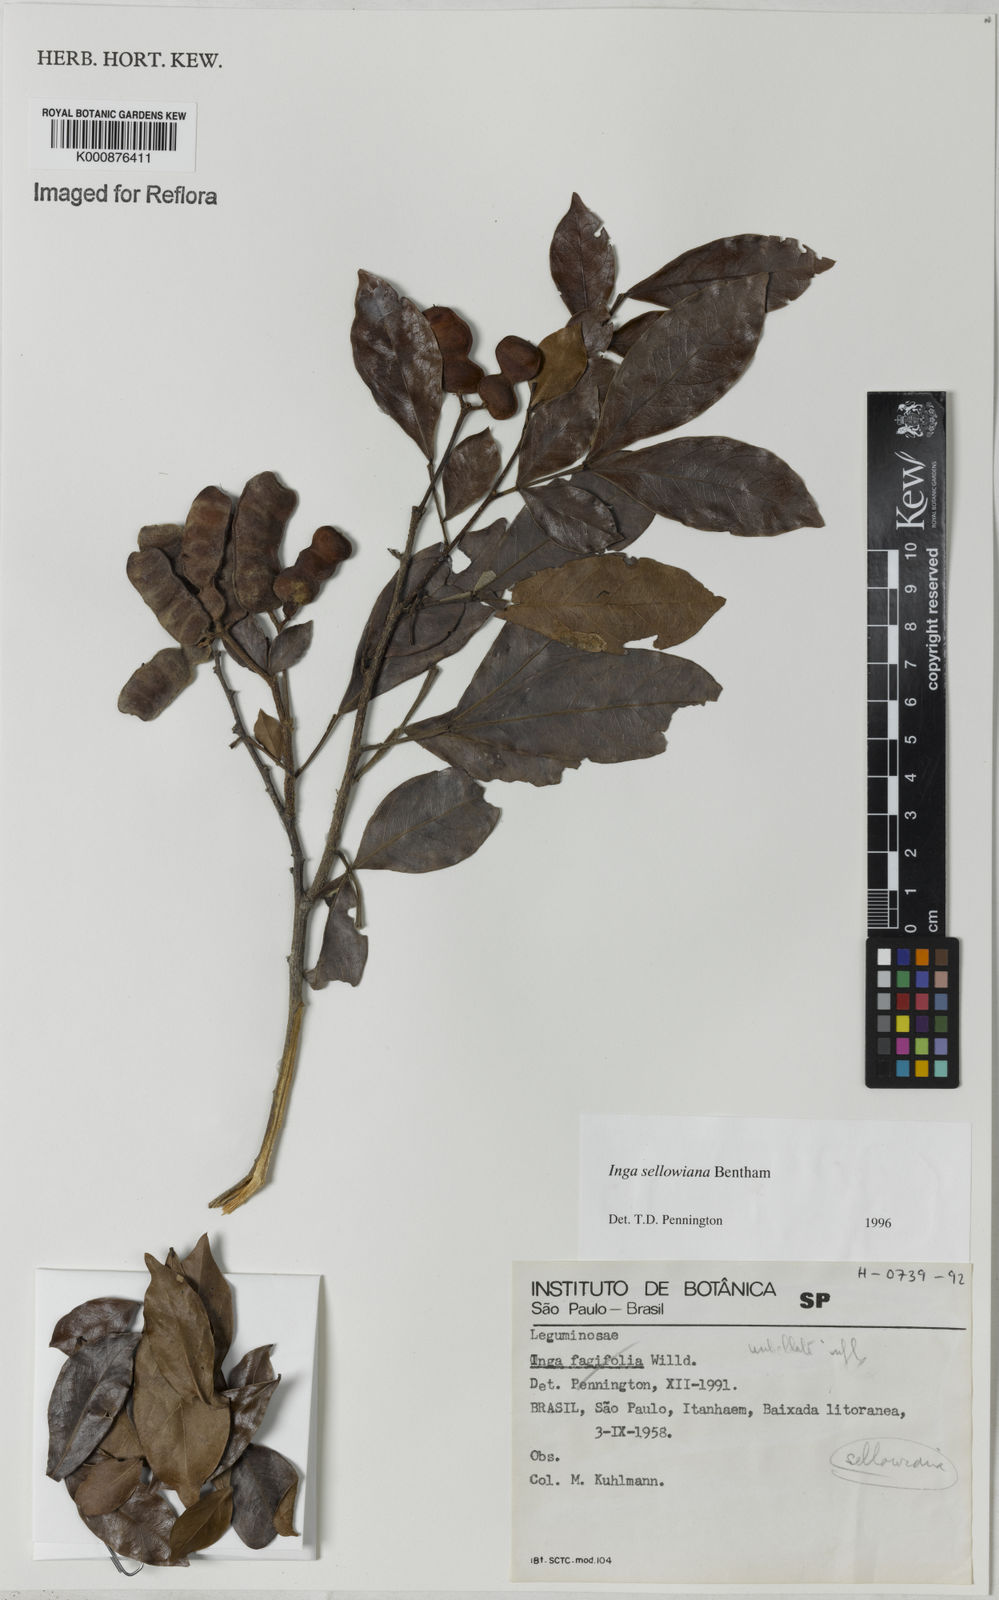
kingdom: Plantae
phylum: Tracheophyta
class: Magnoliopsida
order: Fabales
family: Fabaceae
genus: Inga
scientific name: Inga sellowiana
